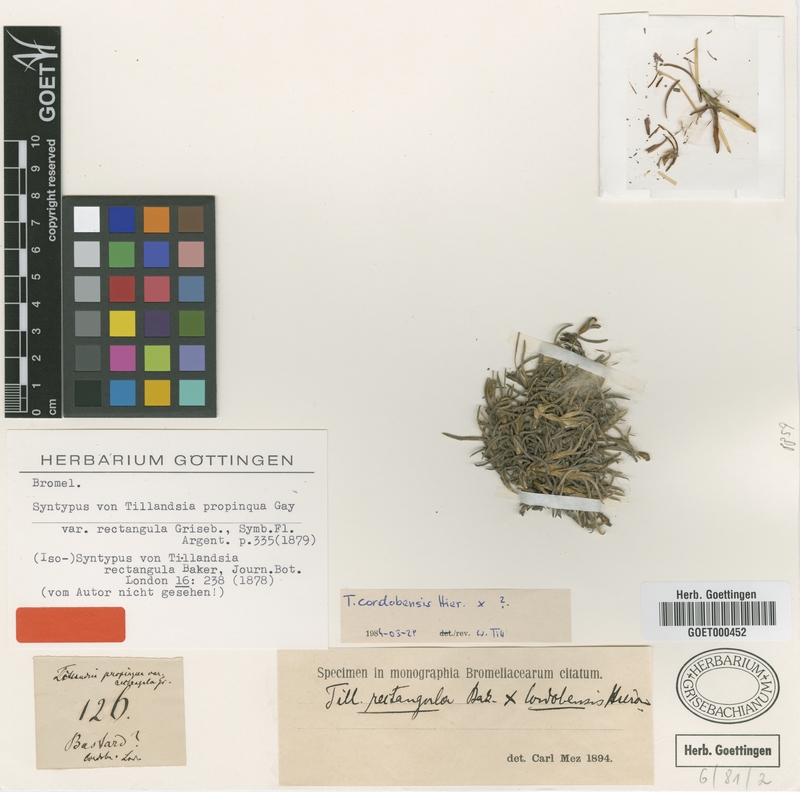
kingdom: Plantae
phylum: Tracheophyta
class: Liliopsida
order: Poales
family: Bromeliaceae
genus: Tillandsia
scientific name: Tillandsia rectangula
